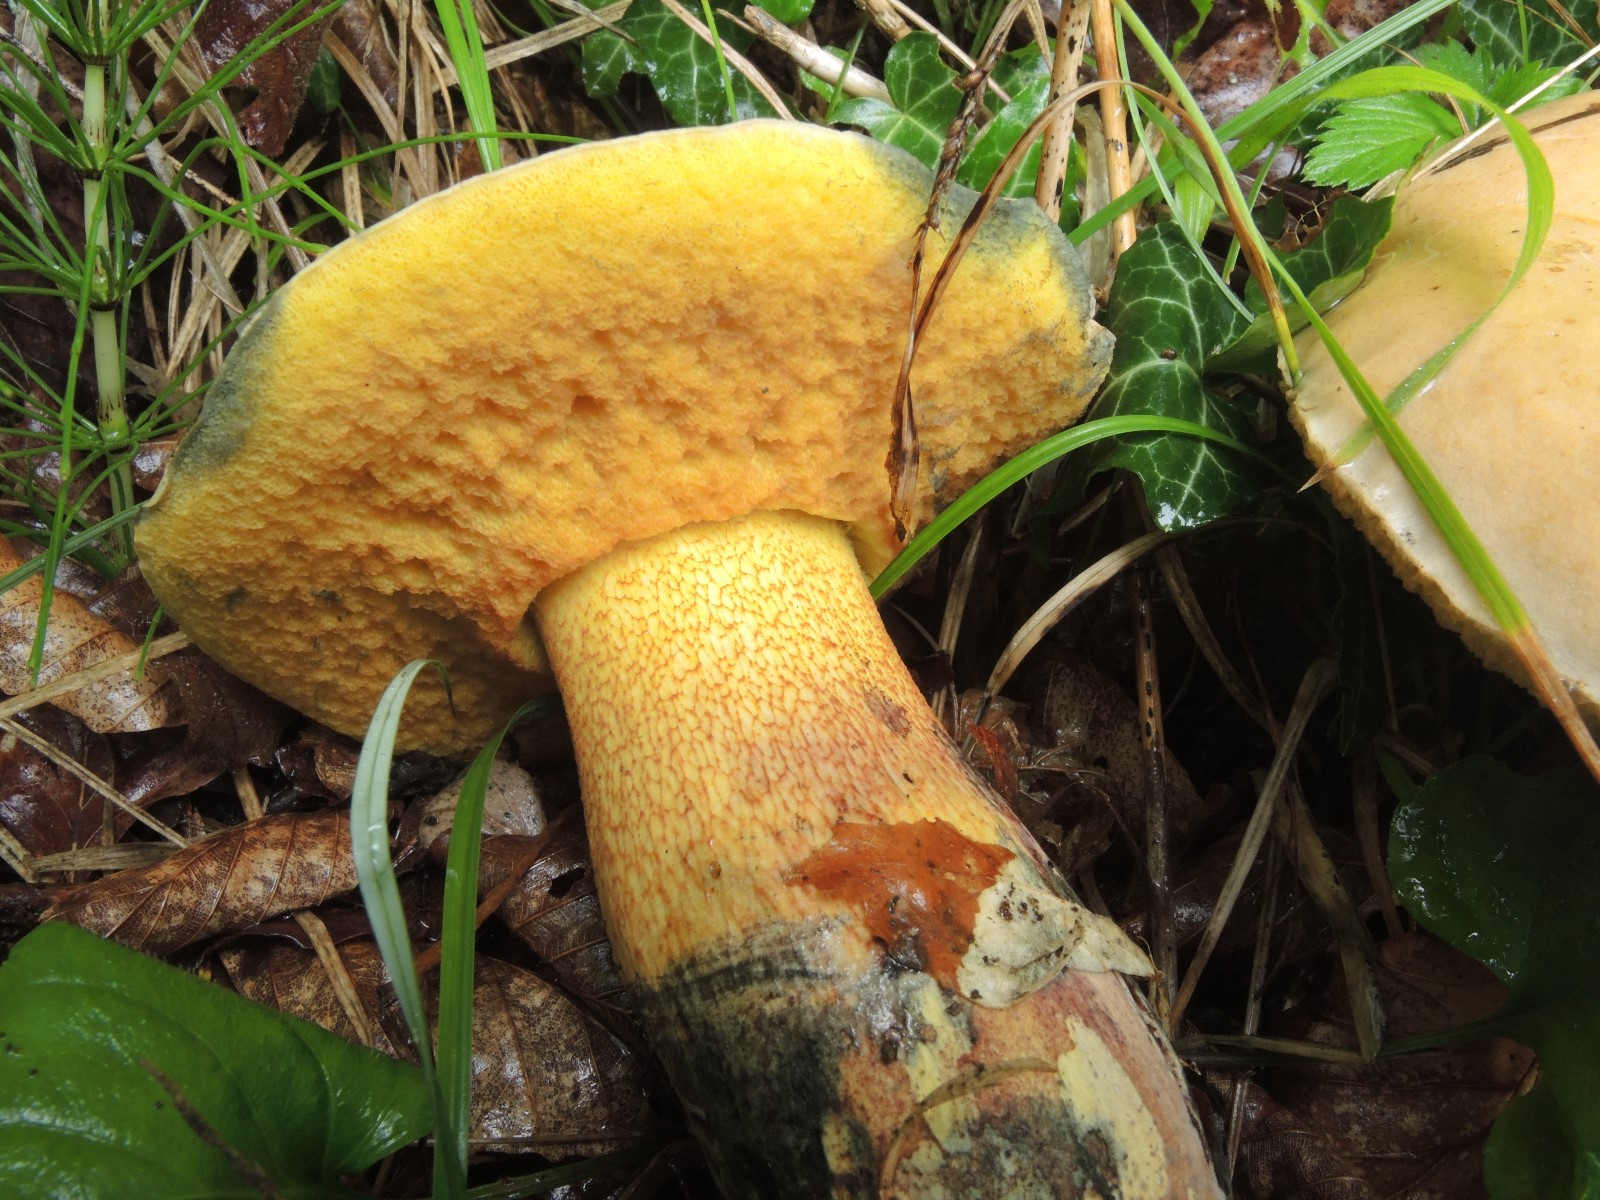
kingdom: Fungi
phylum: Basidiomycota
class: Agaricomycetes
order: Boletales
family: Boletaceae
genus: Suillellus
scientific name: Suillellus luridus
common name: netstokket indigorørhat
